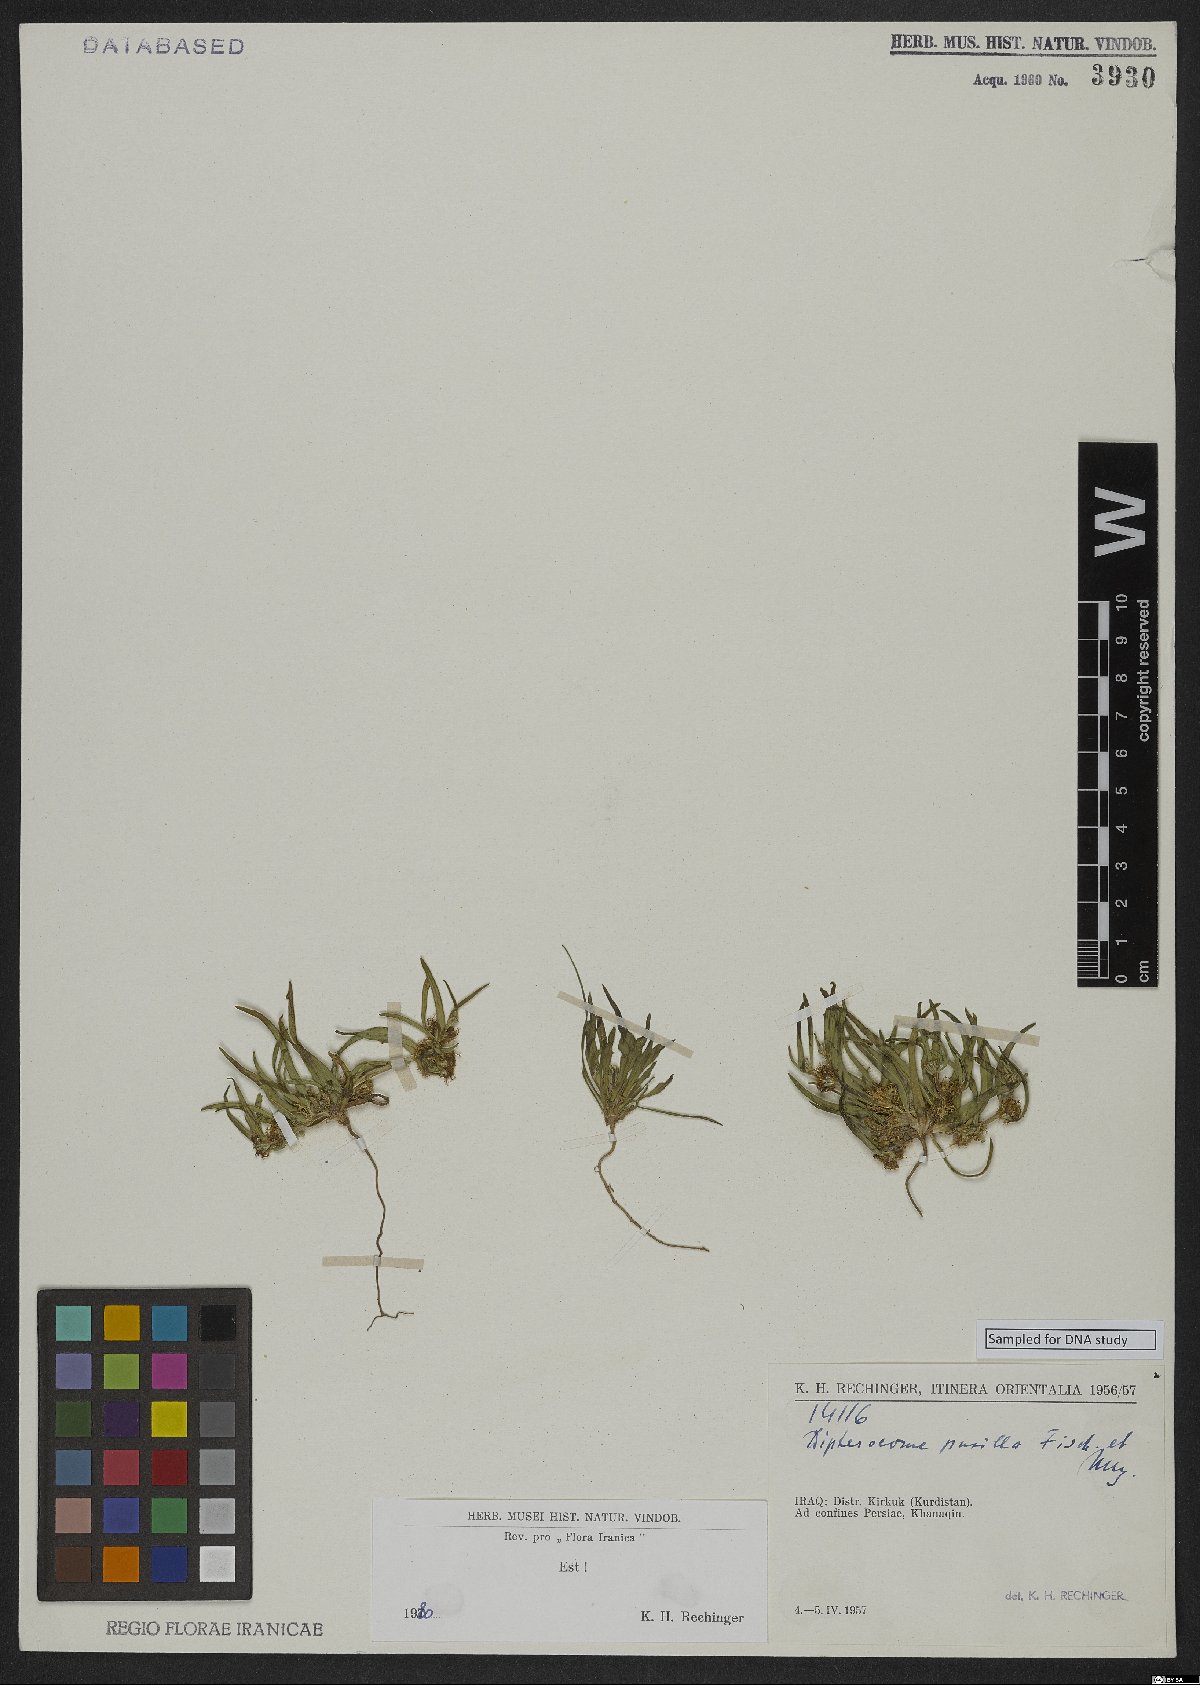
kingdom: Plantae
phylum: Tracheophyta
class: Magnoliopsida
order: Asterales
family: Asteraceae
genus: Dipterocome
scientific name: Dipterocome pusilla
